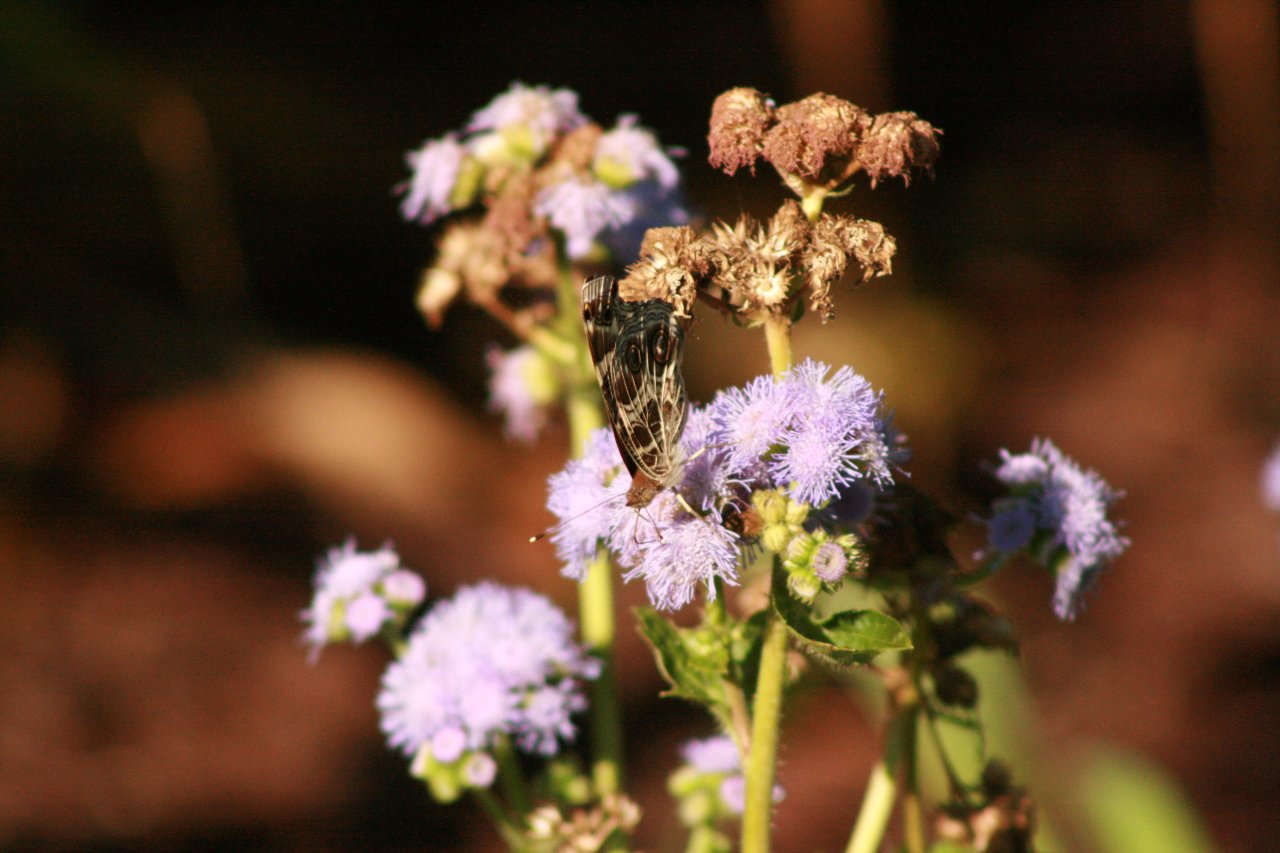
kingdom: Animalia
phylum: Arthropoda
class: Insecta
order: Lepidoptera
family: Nymphalidae
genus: Vanessa
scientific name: Vanessa virginiensis
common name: American Lady
